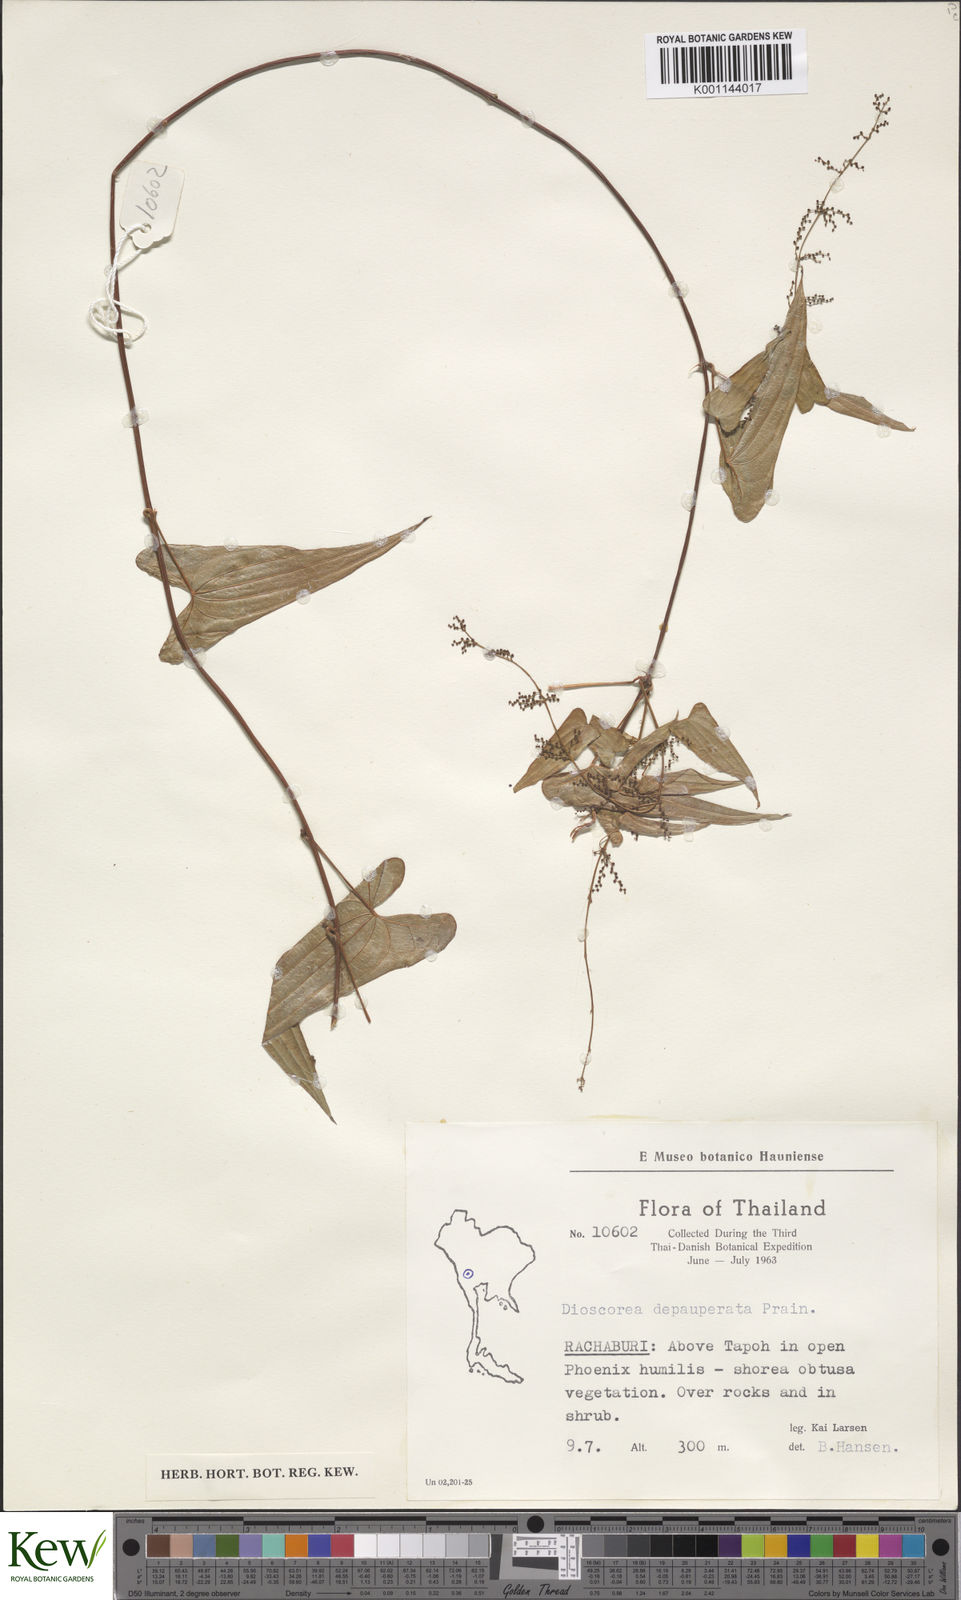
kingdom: Plantae
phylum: Tracheophyta
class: Liliopsida
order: Dioscoreales
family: Dioscoreaceae
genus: Dioscorea
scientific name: Dioscorea depauperata
